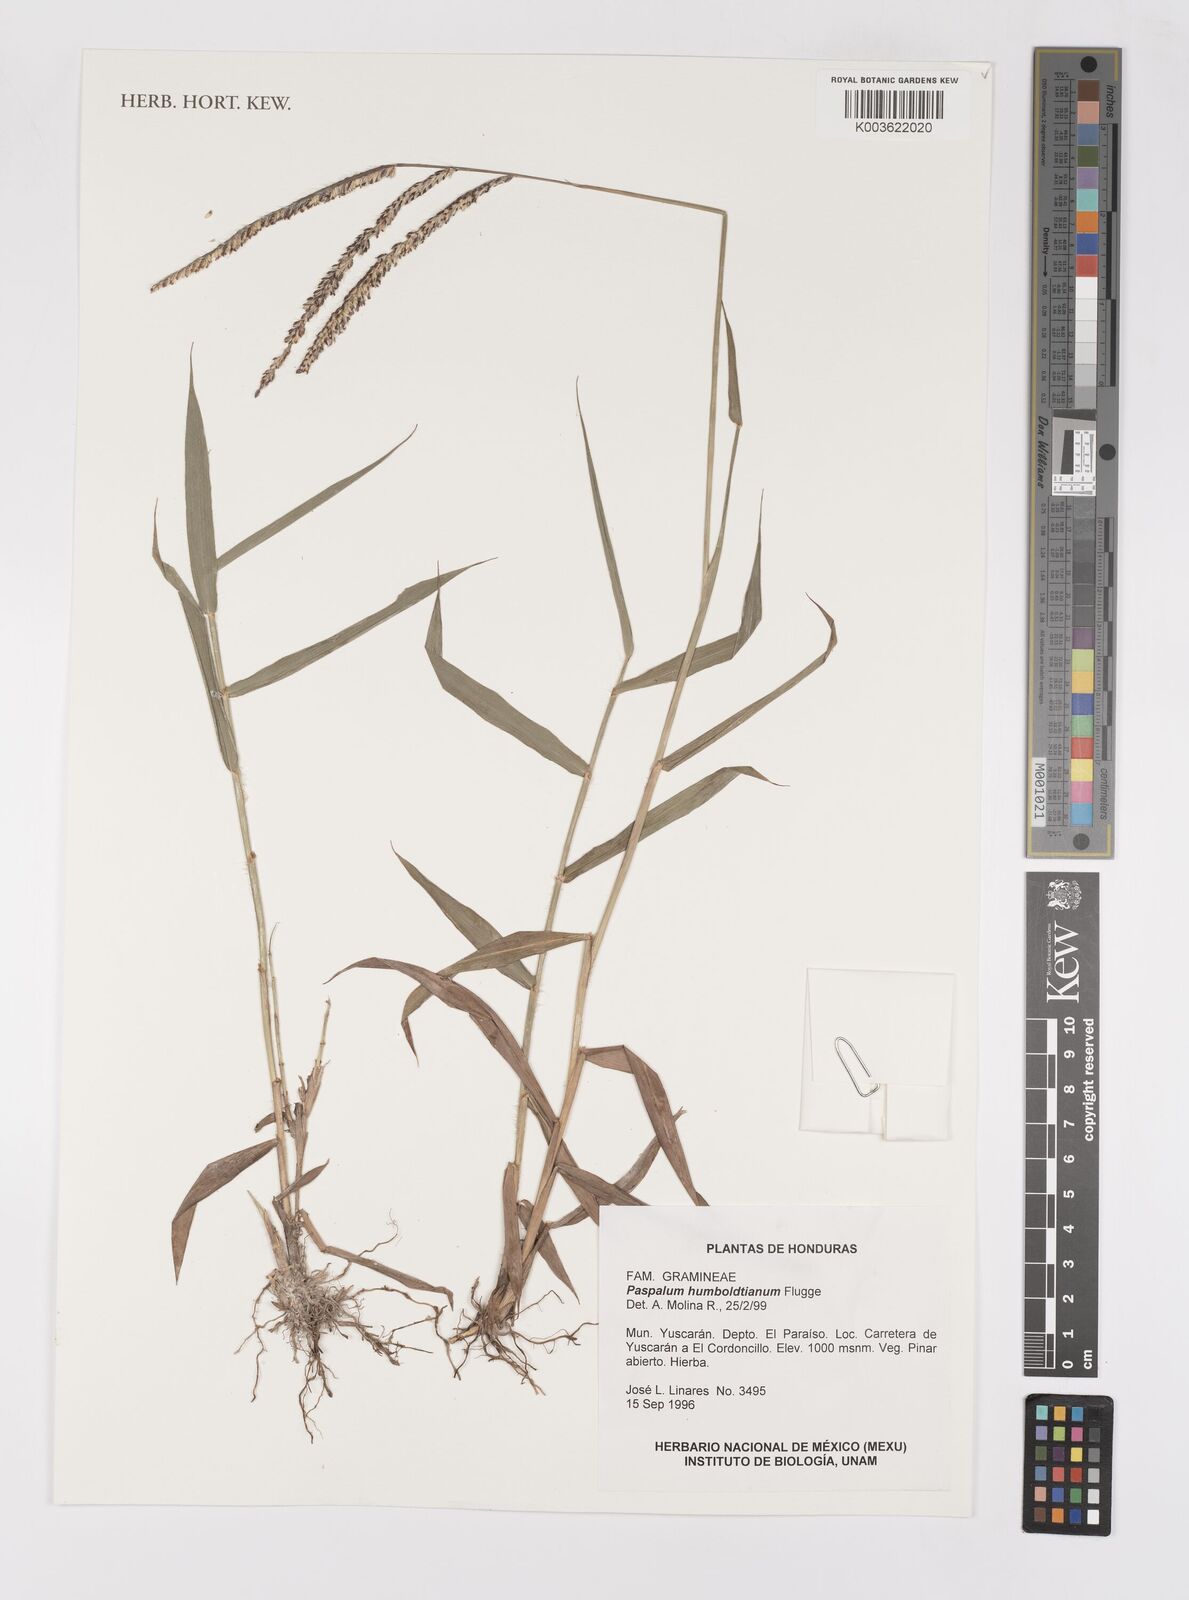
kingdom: Plantae
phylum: Tracheophyta
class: Liliopsida
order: Poales
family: Poaceae
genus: Paspalum
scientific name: Paspalum humboldtianum
